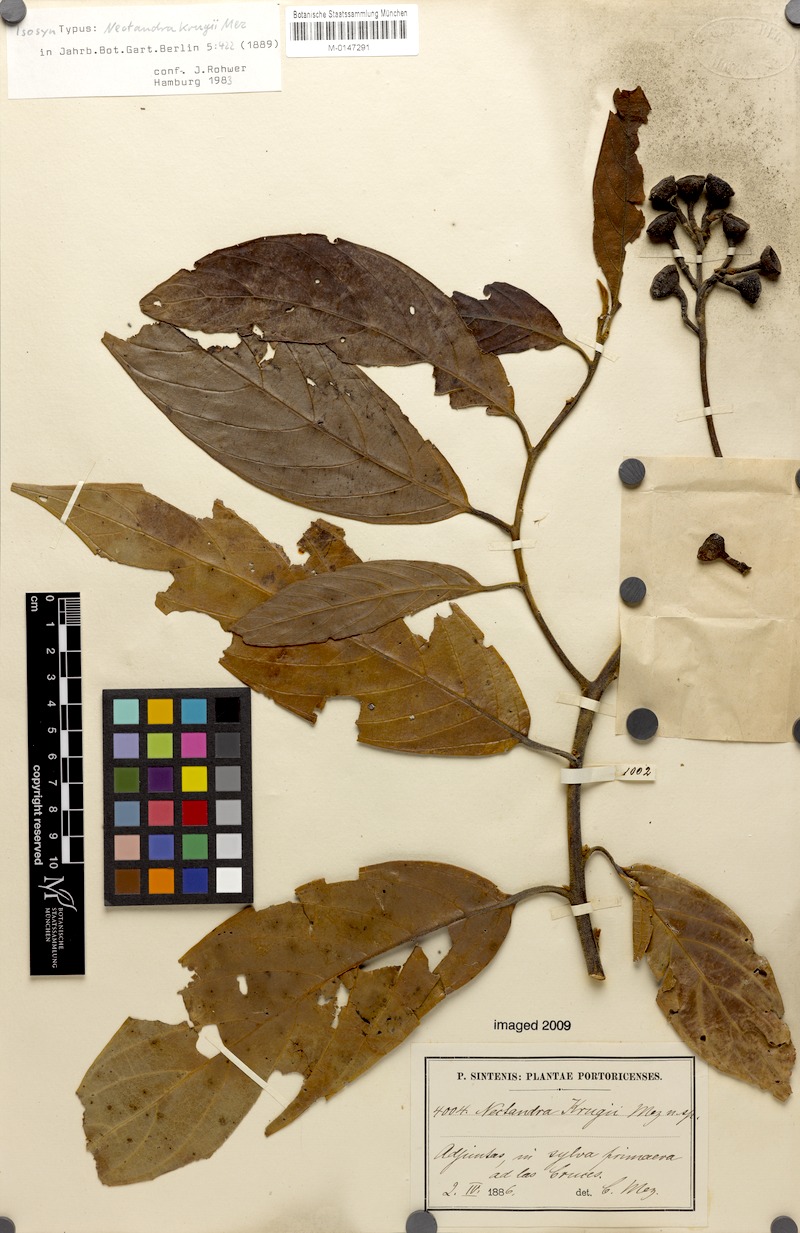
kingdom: Plantae
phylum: Tracheophyta
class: Magnoliopsida
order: Laurales
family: Lauraceae
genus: Nectandra
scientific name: Nectandra krugii
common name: Black sweetwood
